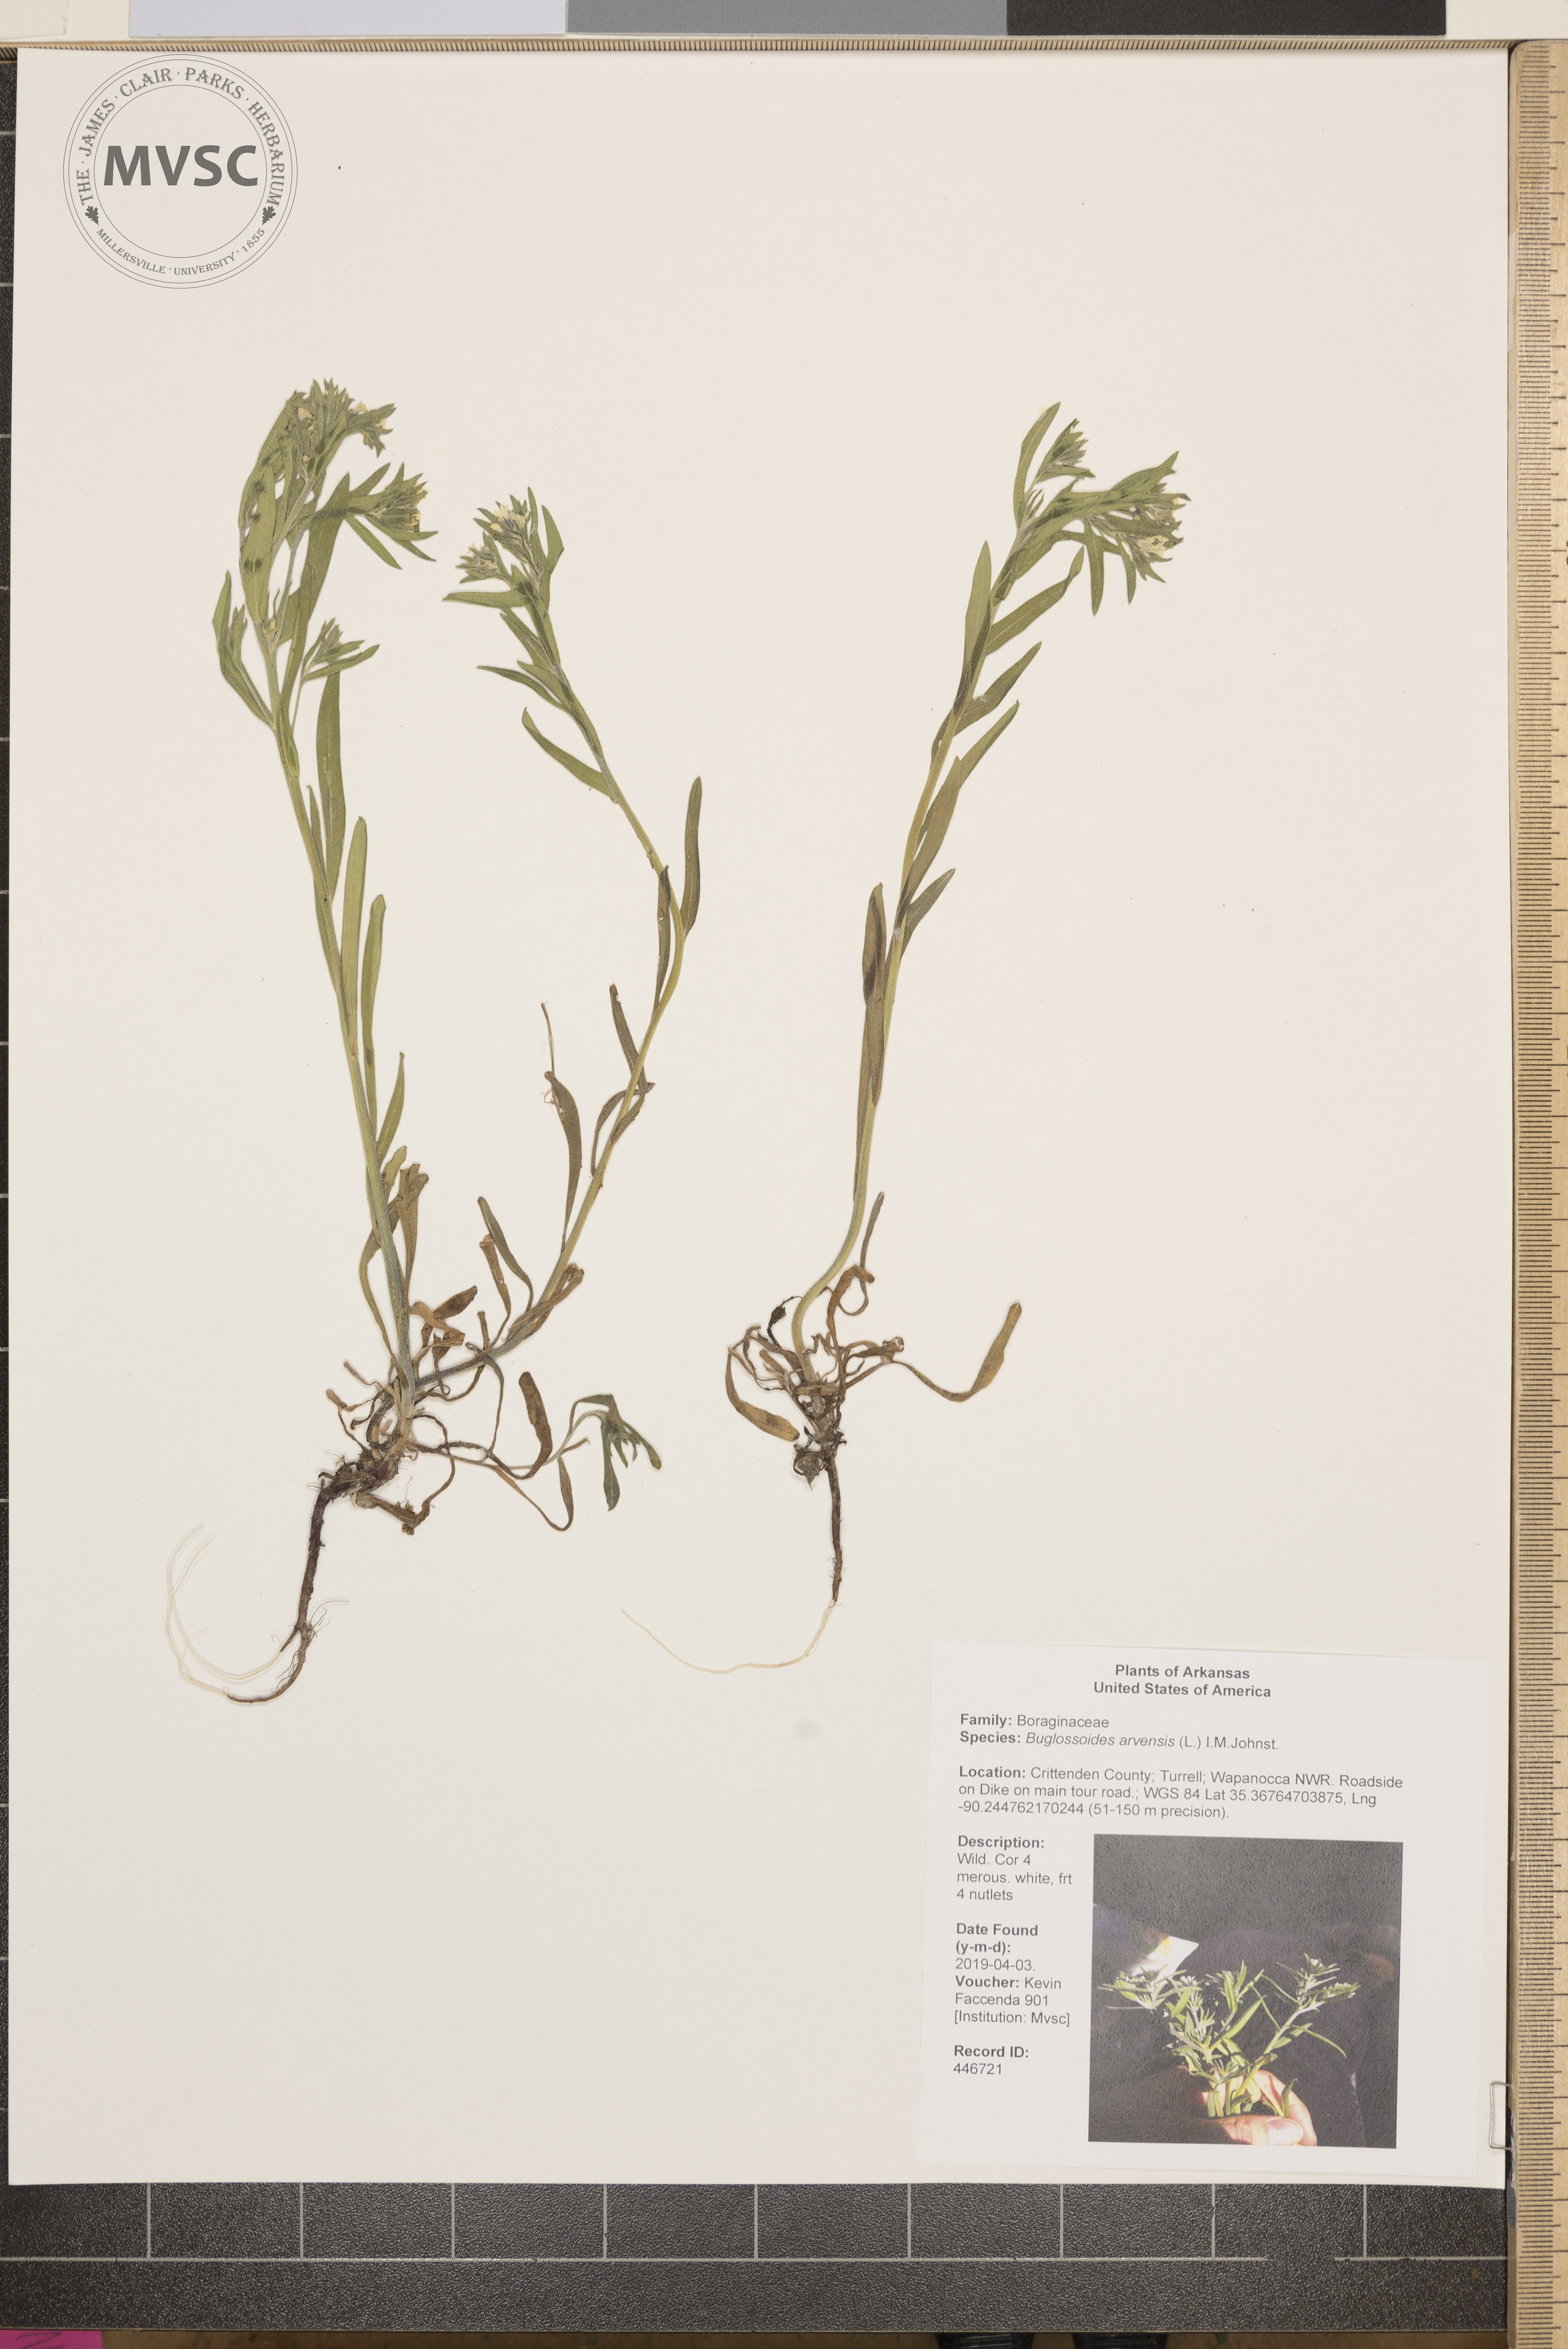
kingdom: Plantae
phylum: Tracheophyta
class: Magnoliopsida
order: Boraginales
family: Boraginaceae
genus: Buglossoides
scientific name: Buglossoides arvensis
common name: Corn gromwell
